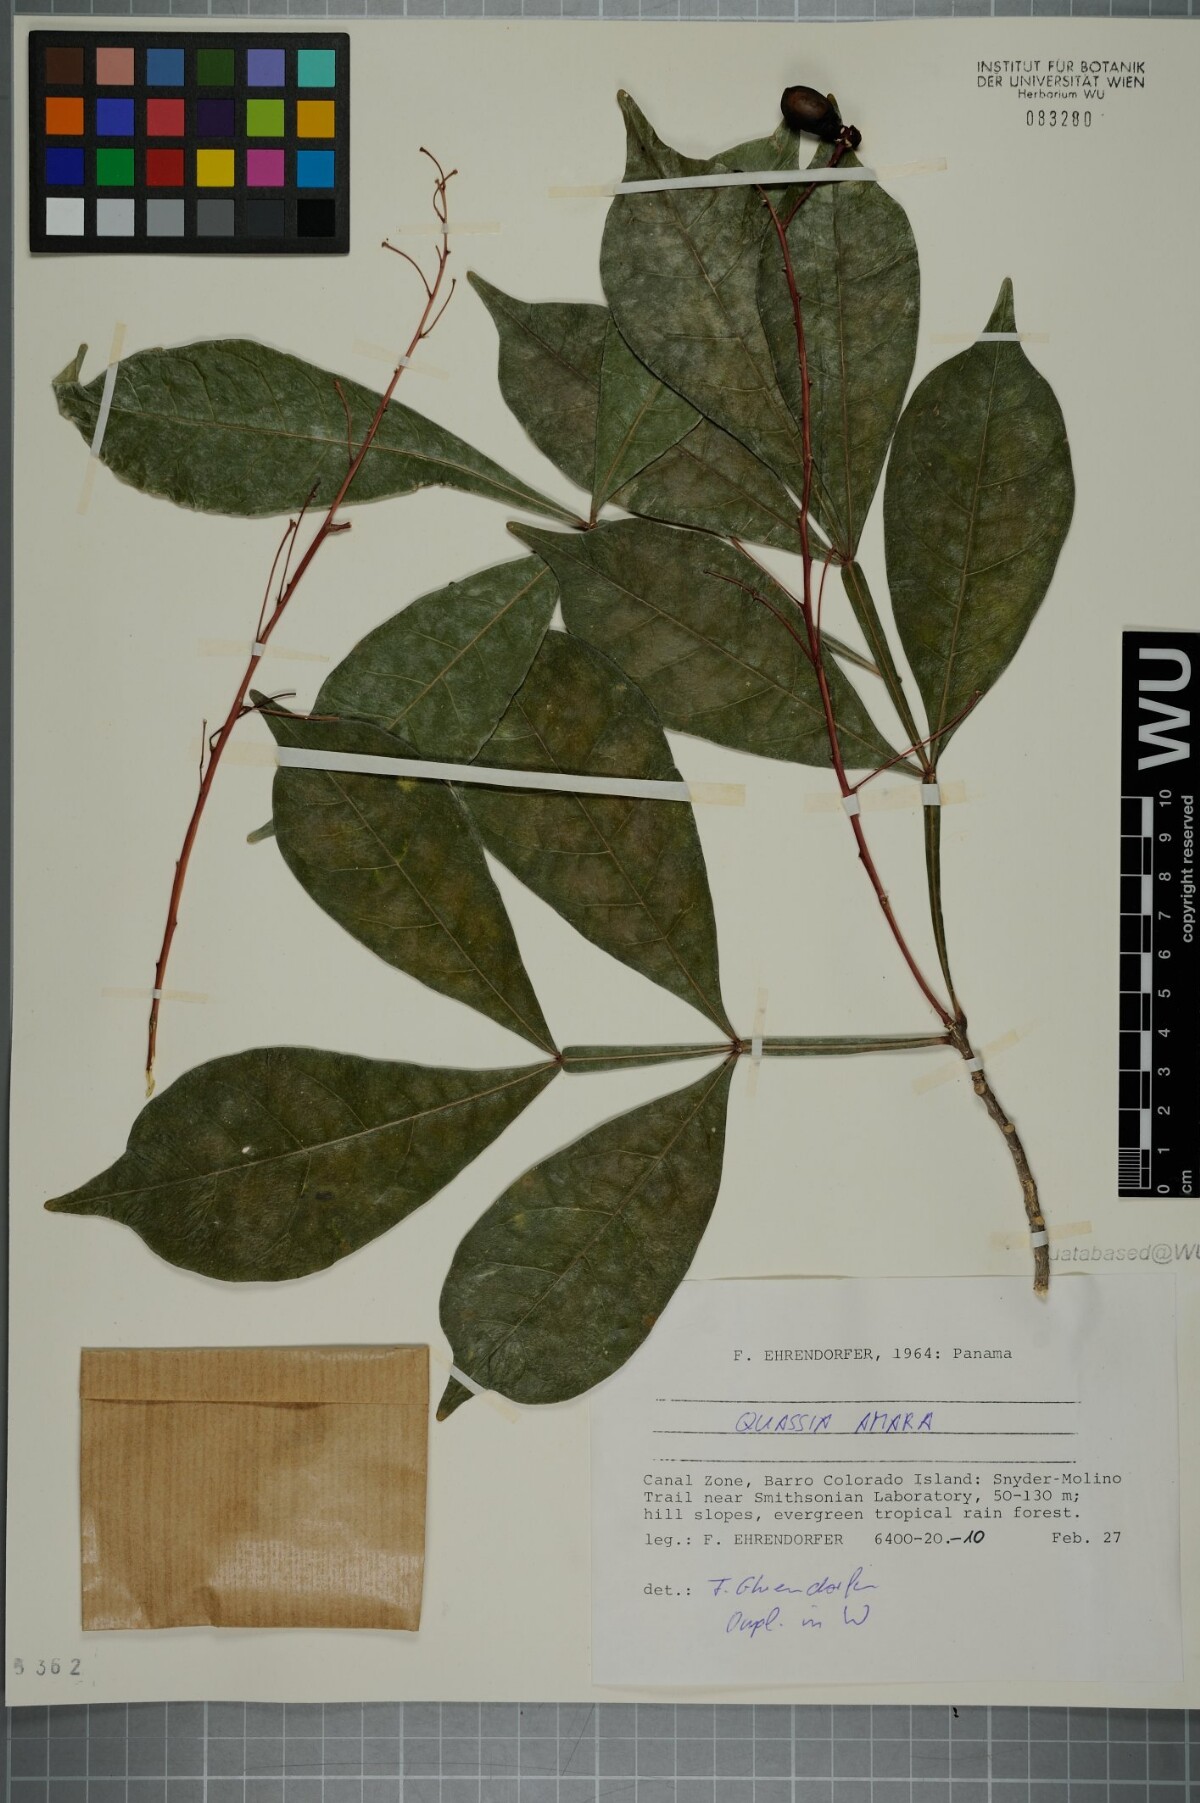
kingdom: Plantae
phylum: Tracheophyta
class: Magnoliopsida
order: Sapindales
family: Simaroubaceae
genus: Quassia
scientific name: Quassia amara
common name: Quassia
